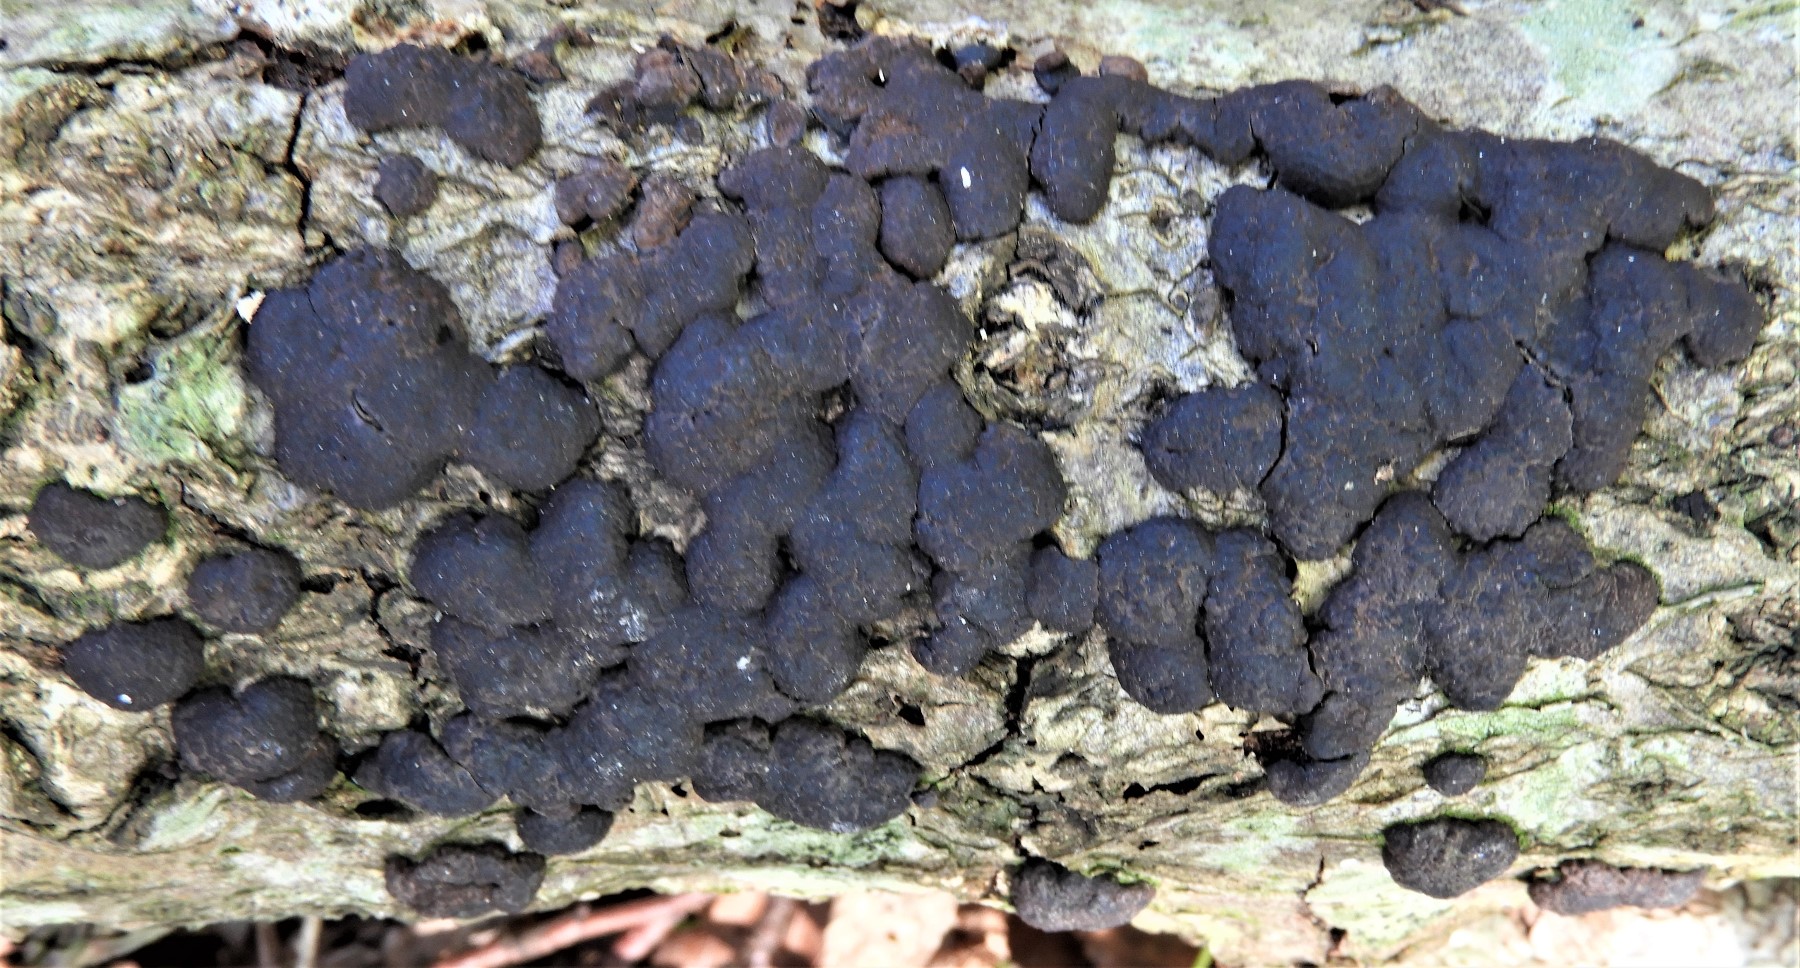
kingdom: Fungi
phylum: Ascomycota
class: Sordariomycetes
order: Xylariales
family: Hypoxylaceae
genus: Jackrogersella
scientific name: Jackrogersella minutella
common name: ege-kulbær
